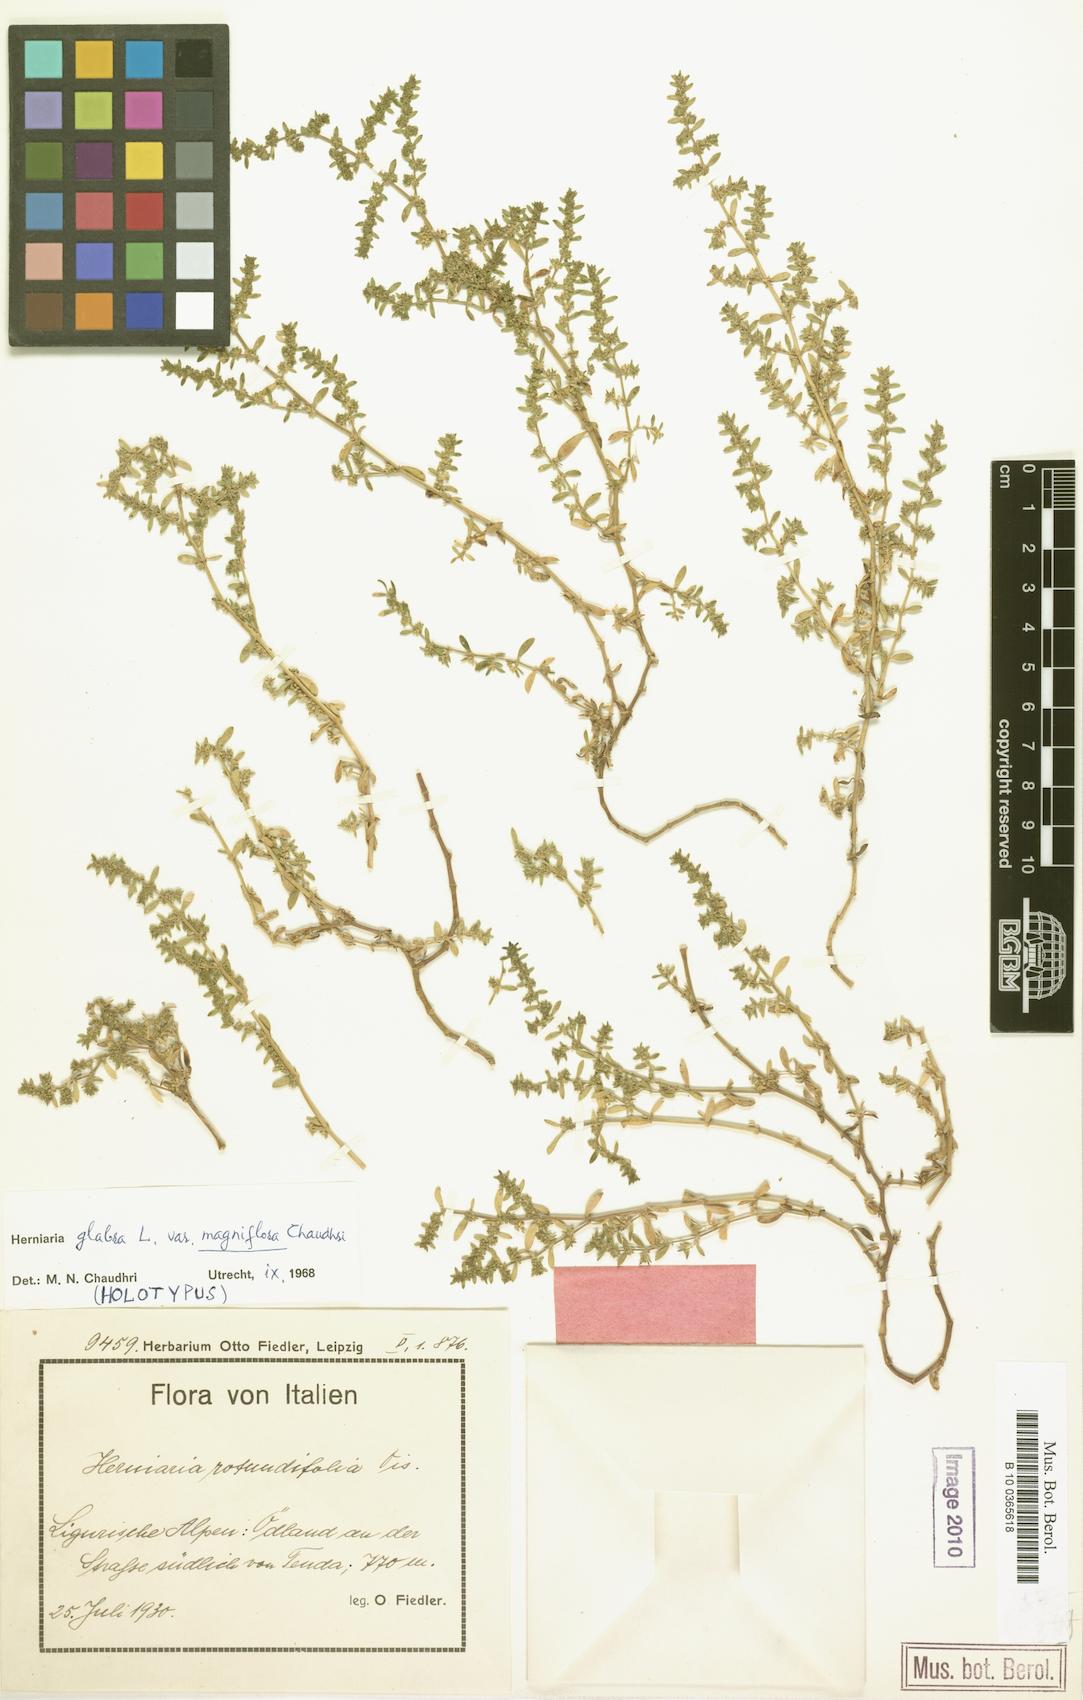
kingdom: Plantae
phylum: Tracheophyta
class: Magnoliopsida
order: Caryophyllales
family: Caryophyllaceae
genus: Herniaria
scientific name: Herniaria glabra
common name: Smooth rupturewort
